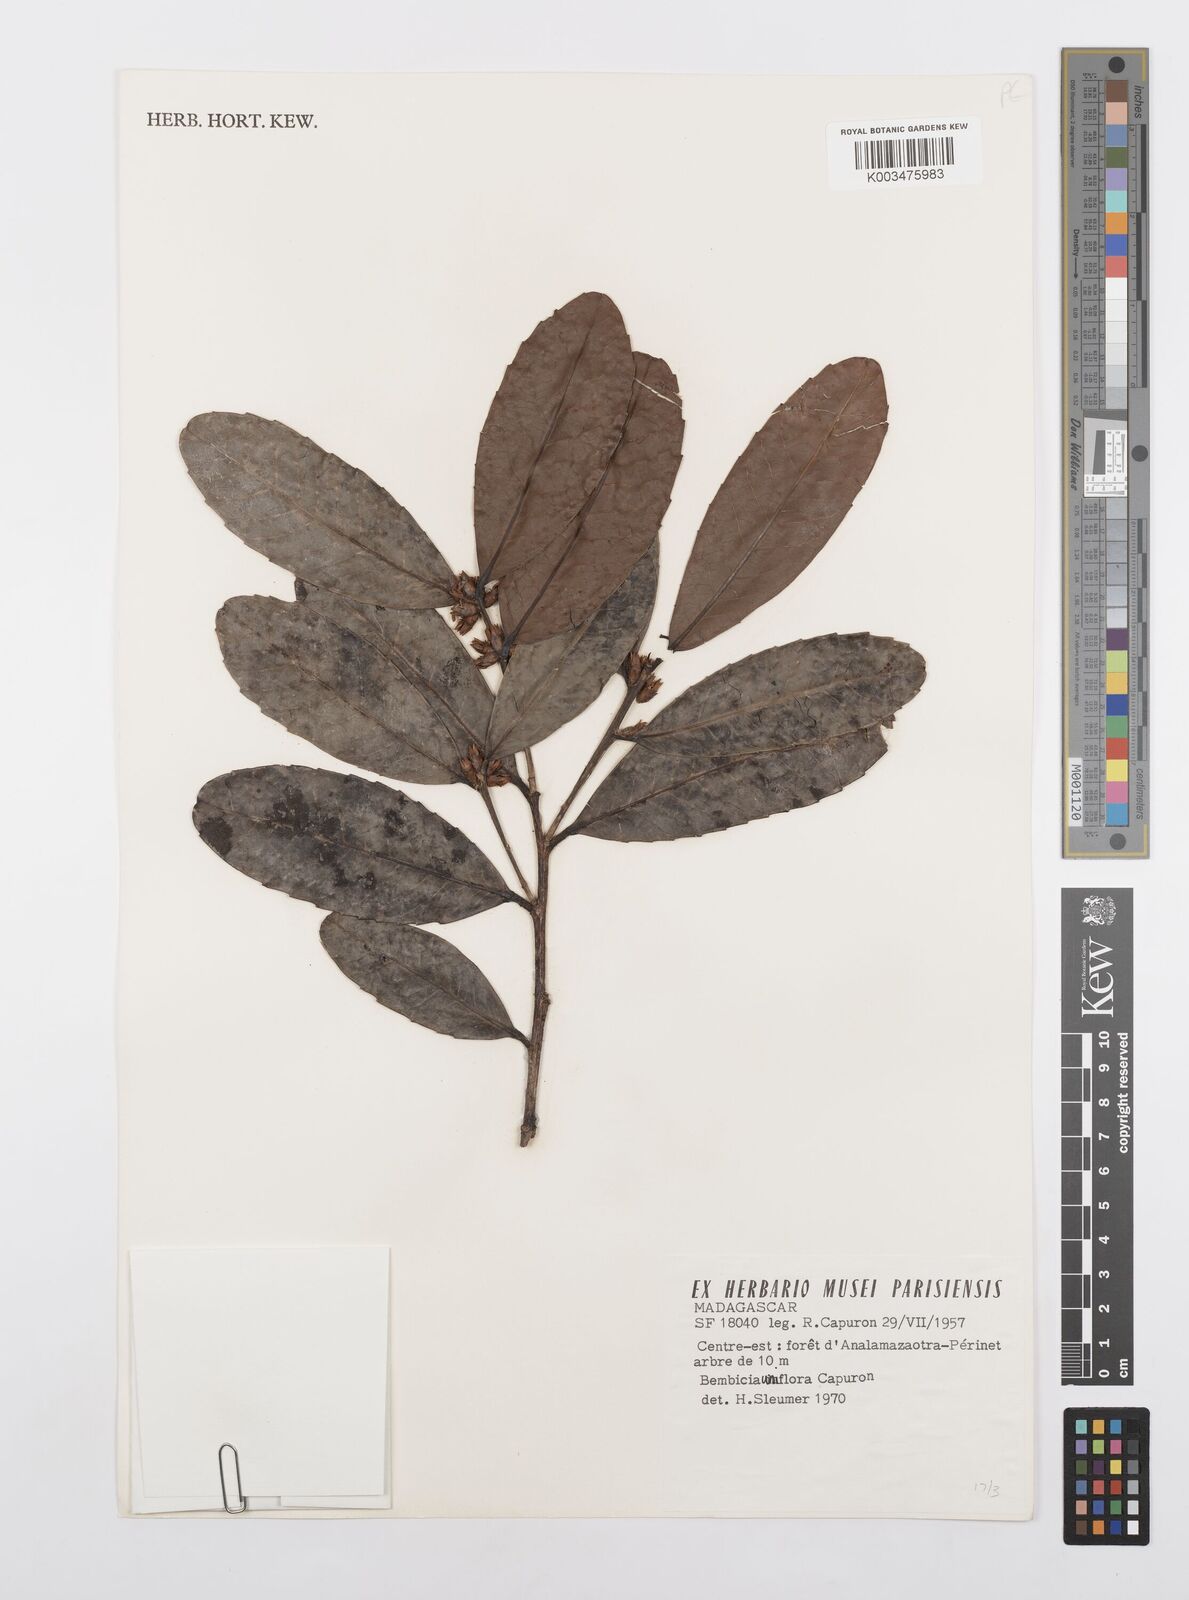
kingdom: Plantae
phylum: Tracheophyta
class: Magnoliopsida
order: Malpighiales
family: Salicaceae
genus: Bembicia
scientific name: Bembicia
